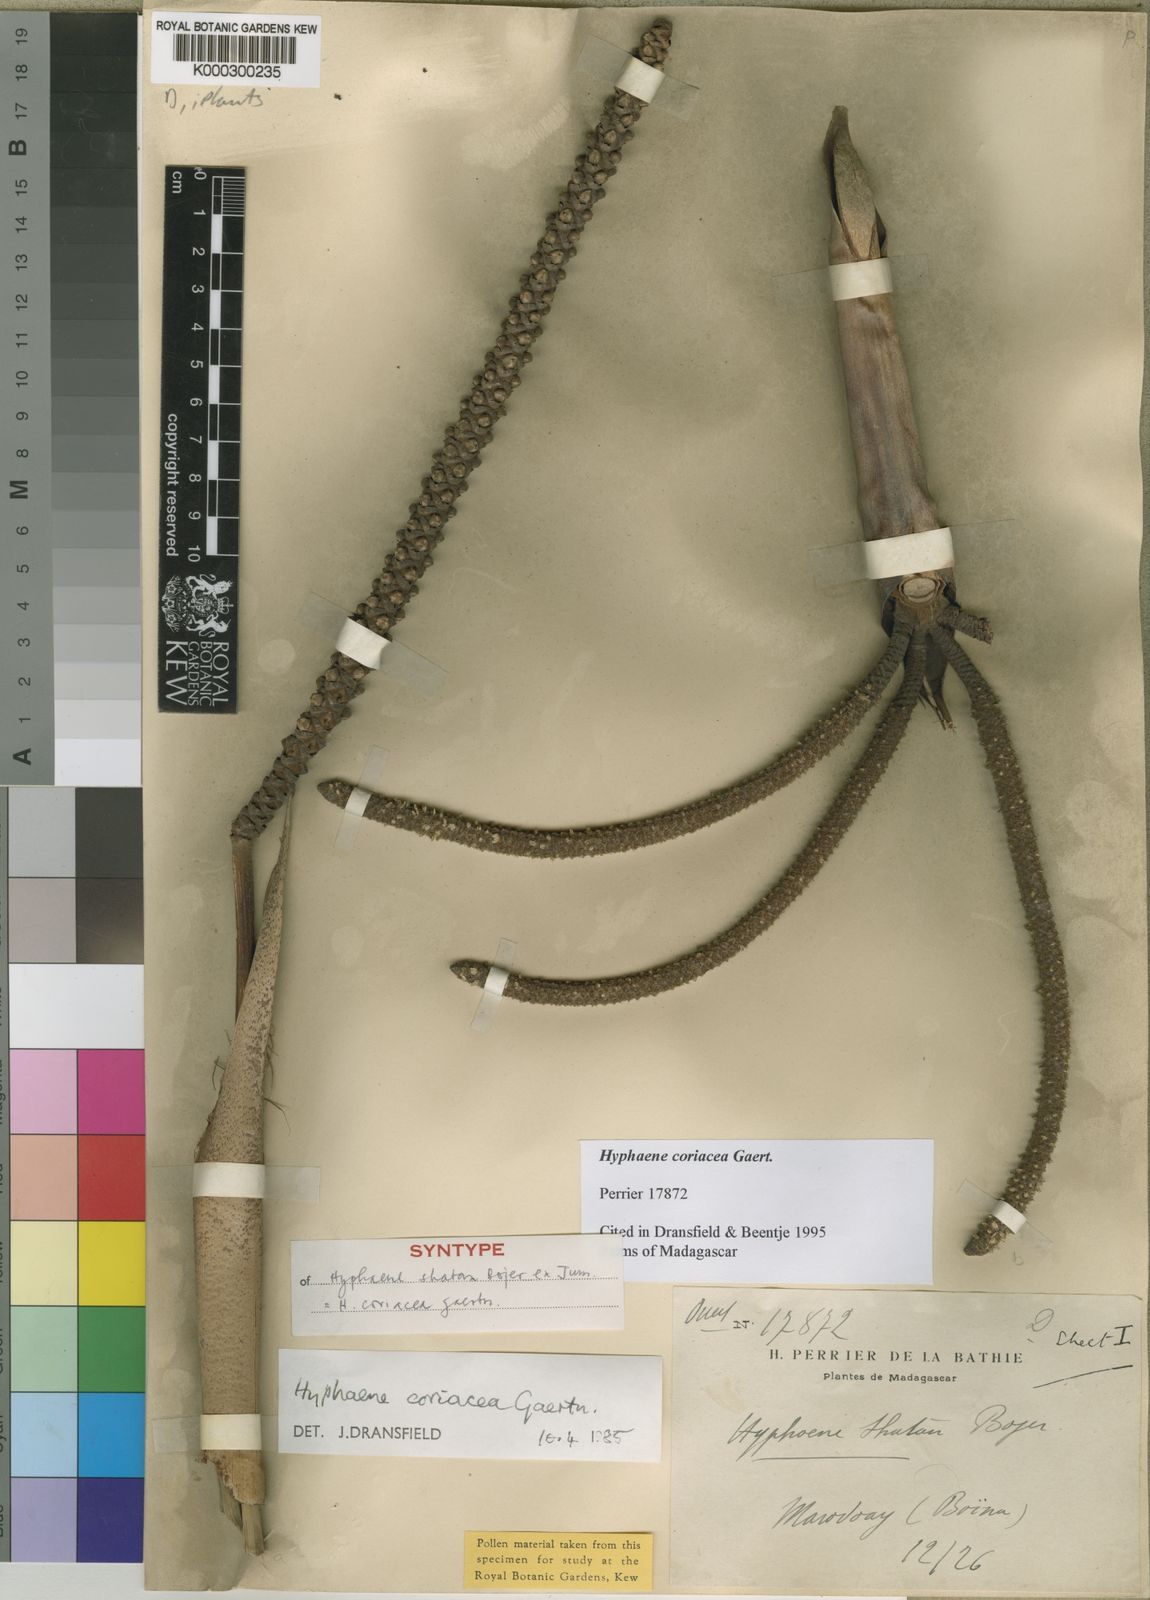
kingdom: Plantae
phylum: Tracheophyta
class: Liliopsida
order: Arecales
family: Arecaceae
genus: Hyphaene
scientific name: Hyphaene coriacea
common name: Ilala palm
